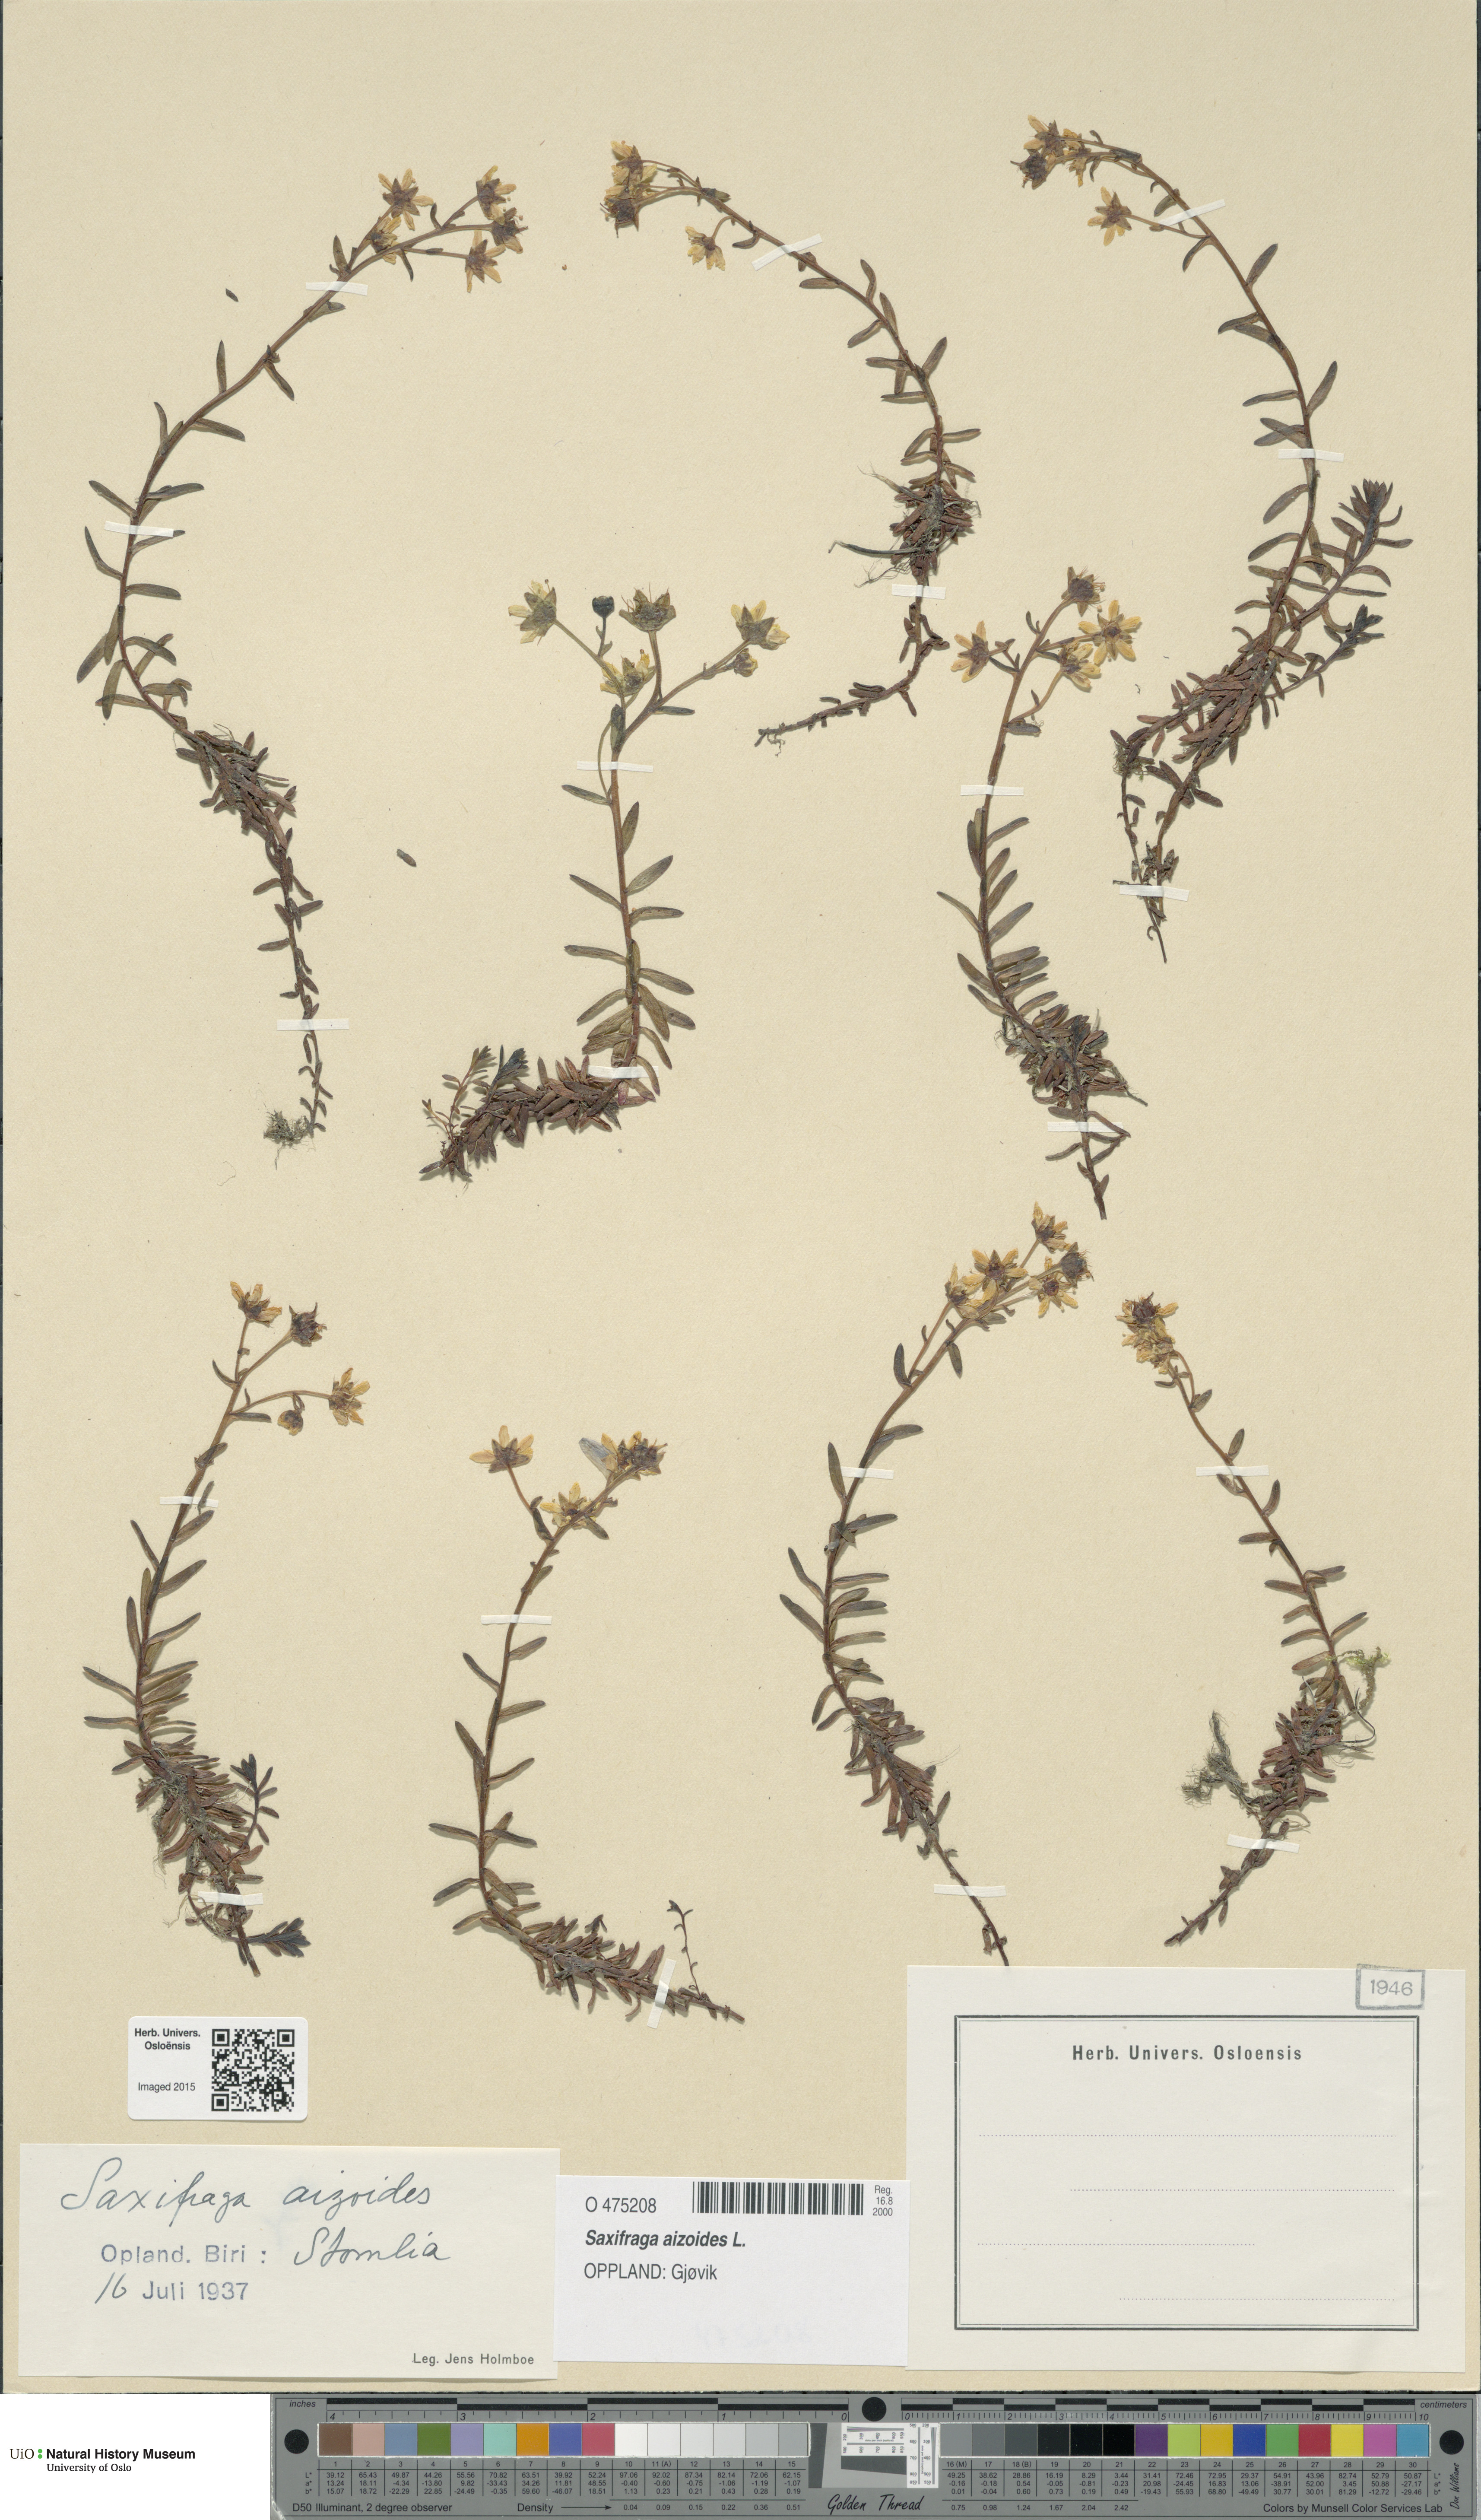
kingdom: Plantae
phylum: Tracheophyta
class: Magnoliopsida
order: Saxifragales
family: Saxifragaceae
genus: Saxifraga
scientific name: Saxifraga aizoides
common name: Yellow mountain saxifrage
